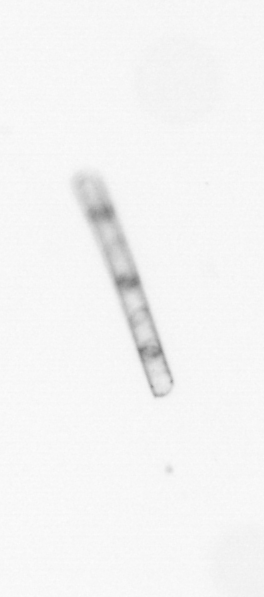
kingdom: Chromista
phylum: Ochrophyta
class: Bacillariophyceae
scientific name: Bacillariophyceae
